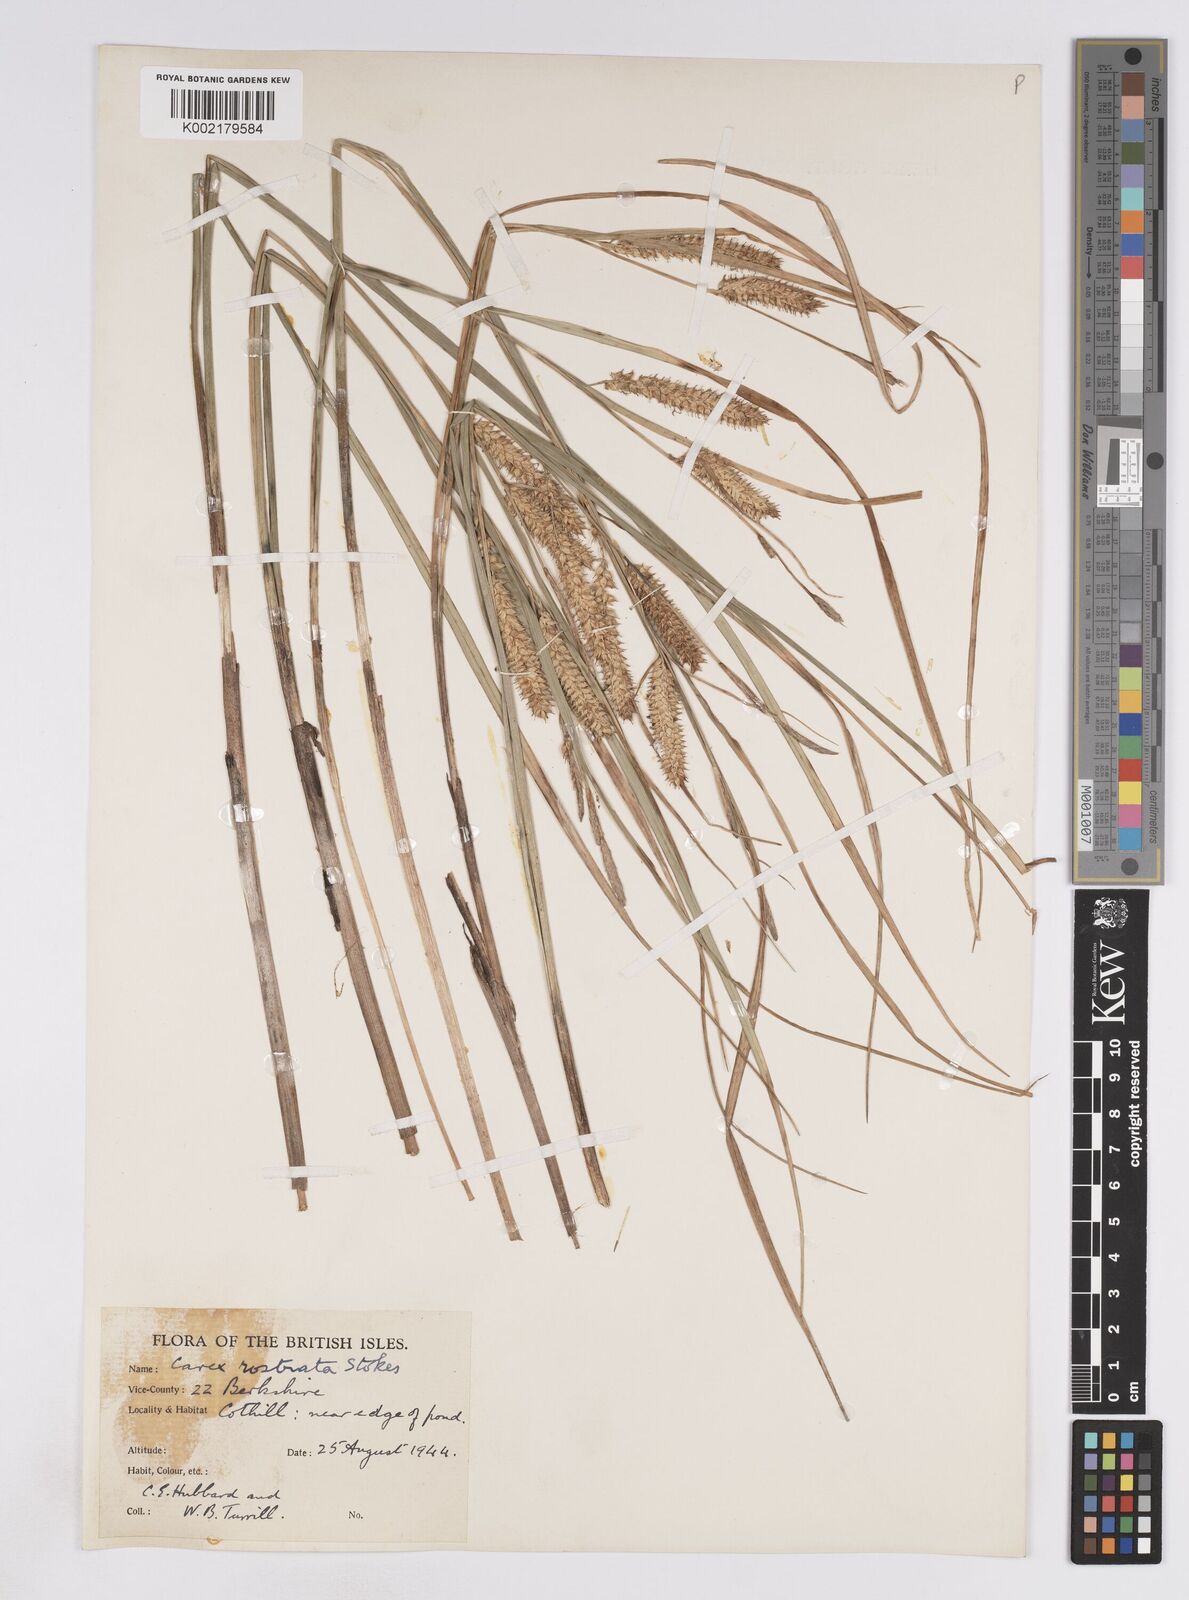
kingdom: Plantae
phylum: Tracheophyta
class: Liliopsida
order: Poales
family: Cyperaceae
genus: Carex
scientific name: Carex rostrata
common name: Bottle sedge
